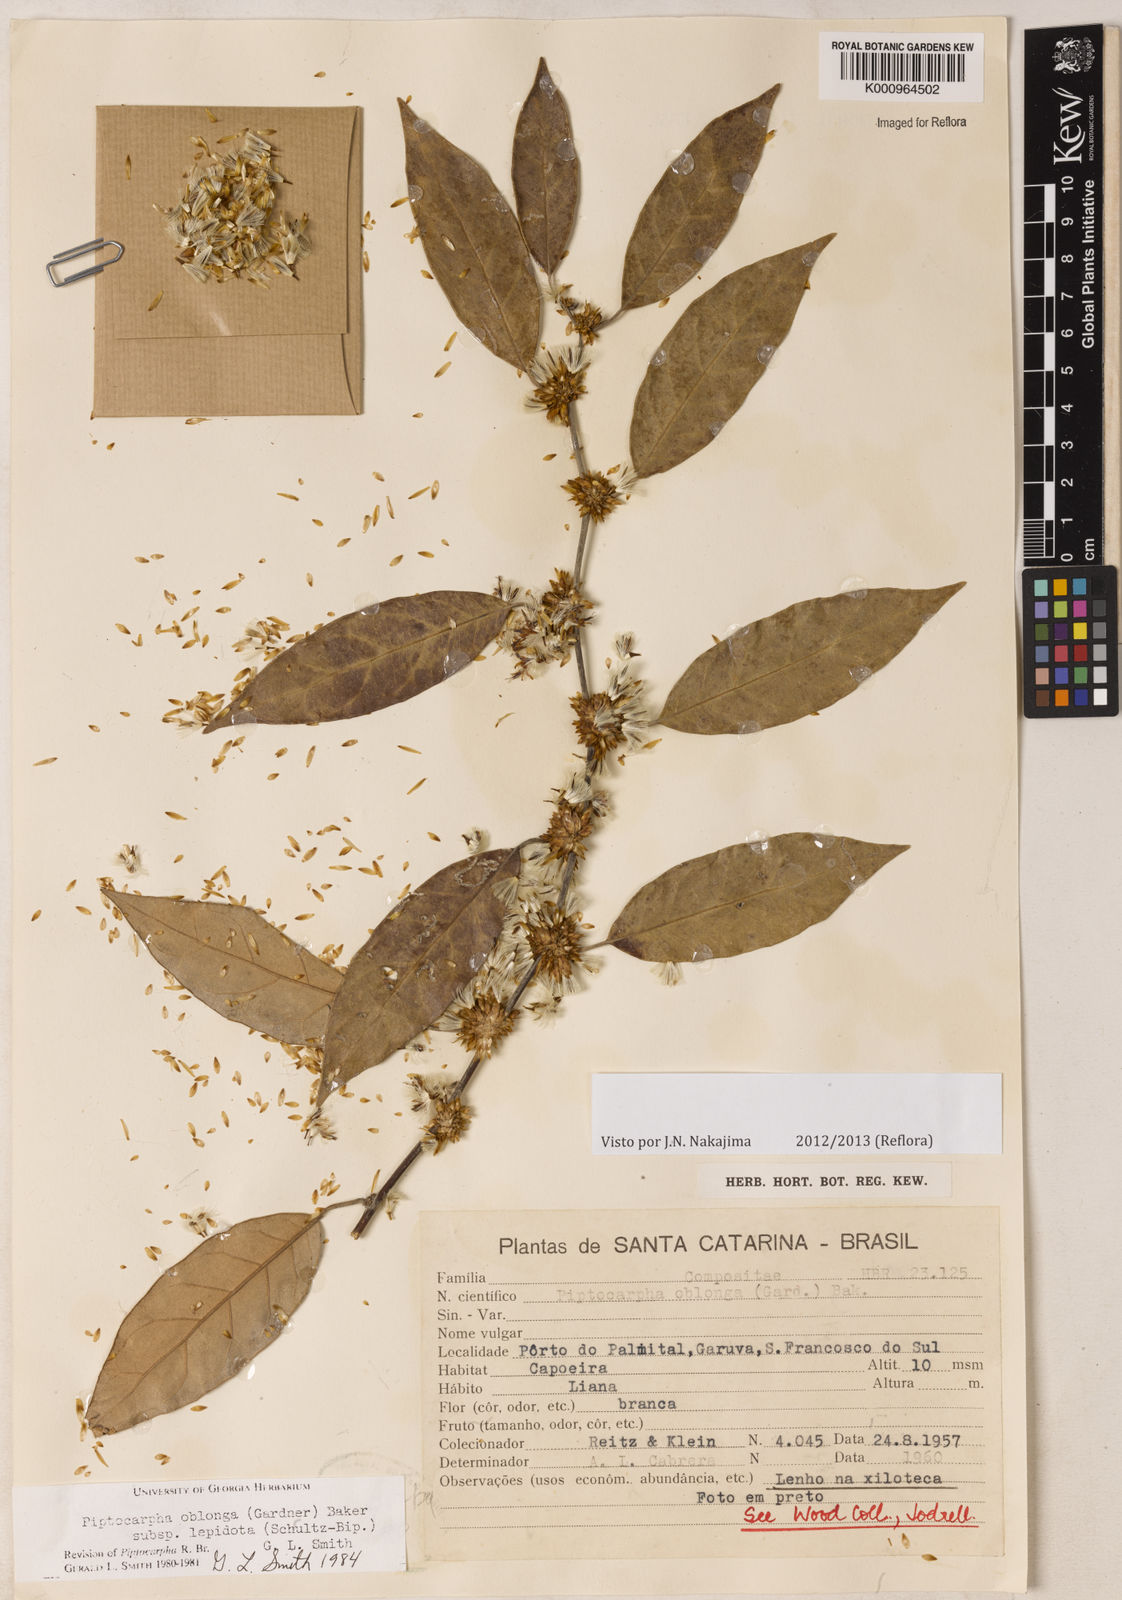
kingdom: Plantae
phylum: Tracheophyta
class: Magnoliopsida
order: Asterales
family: Asteraceae
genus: Piptocarpha
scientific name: Piptocarpha oblonga
